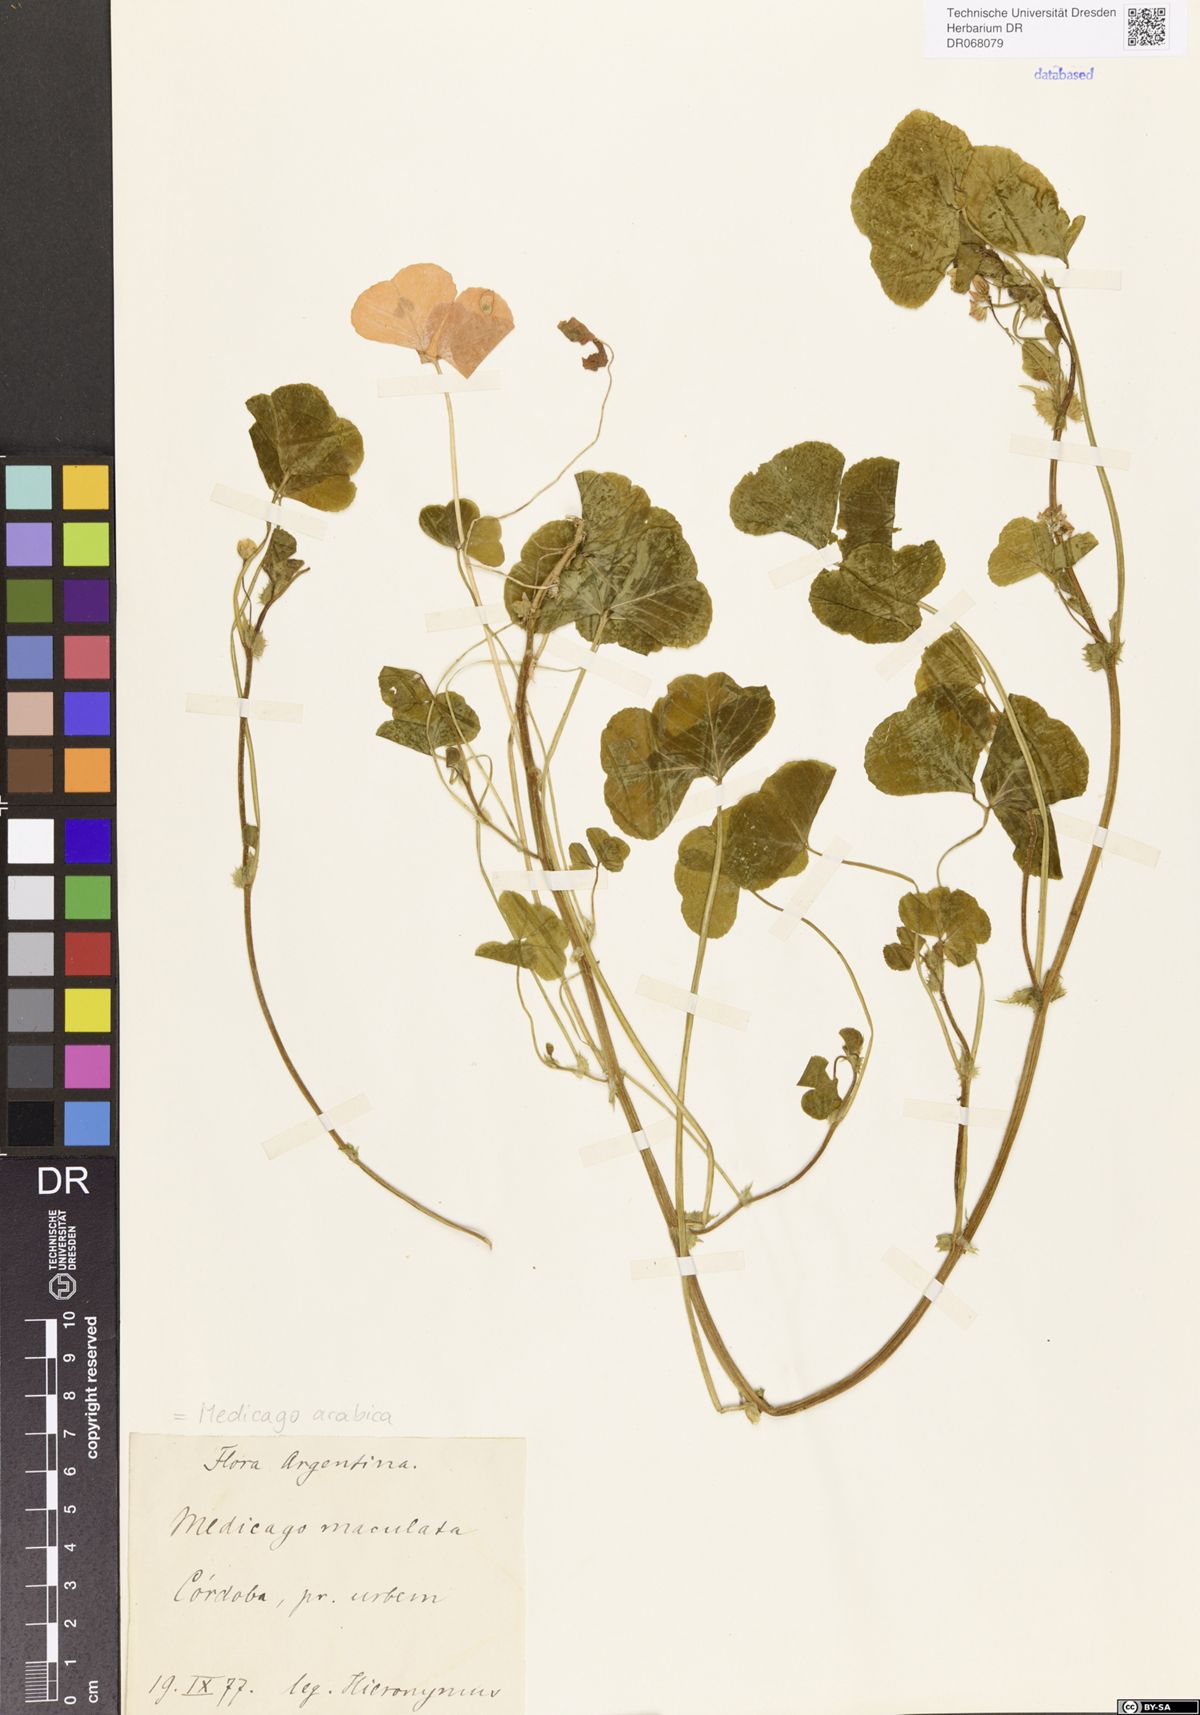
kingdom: Plantae
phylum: Tracheophyta
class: Magnoliopsida
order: Fabales
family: Fabaceae
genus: Medicago
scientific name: Medicago arabica
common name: Spotted medick
